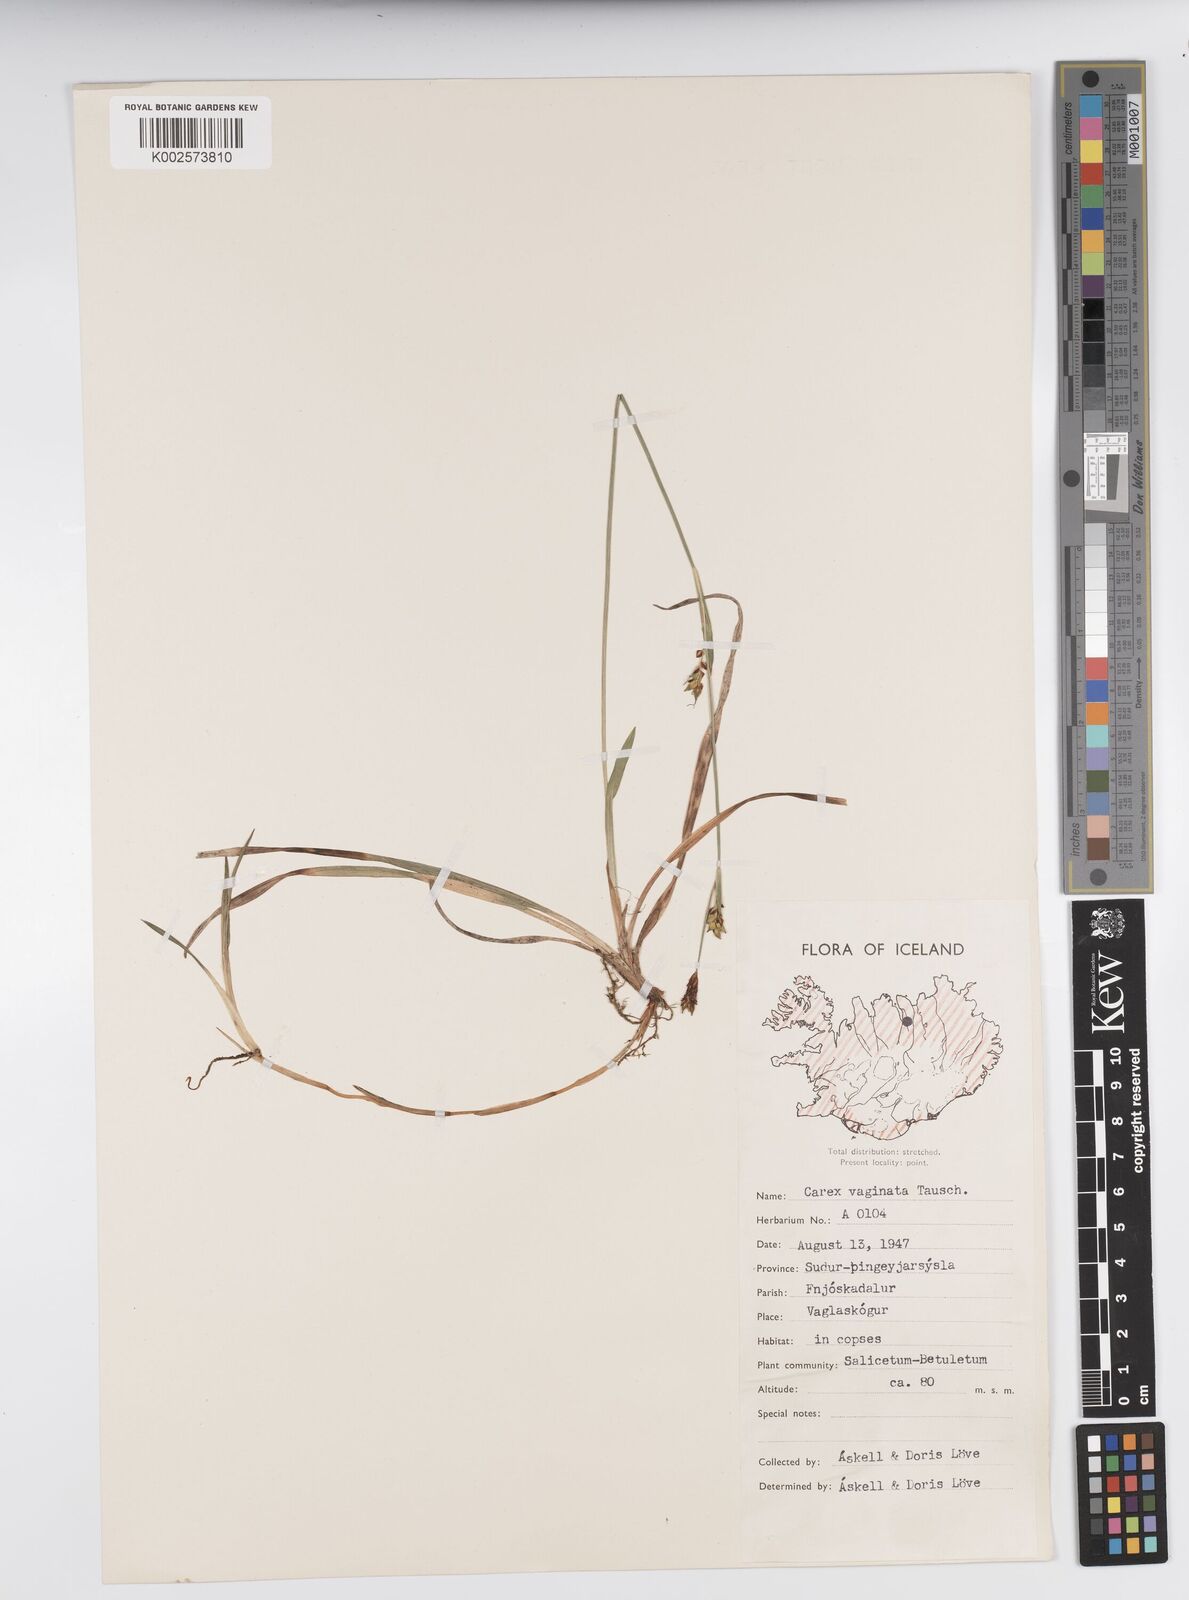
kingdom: Plantae
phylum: Tracheophyta
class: Liliopsida
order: Poales
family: Cyperaceae
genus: Carex
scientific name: Carex vaginata
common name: Sheathed sedge
